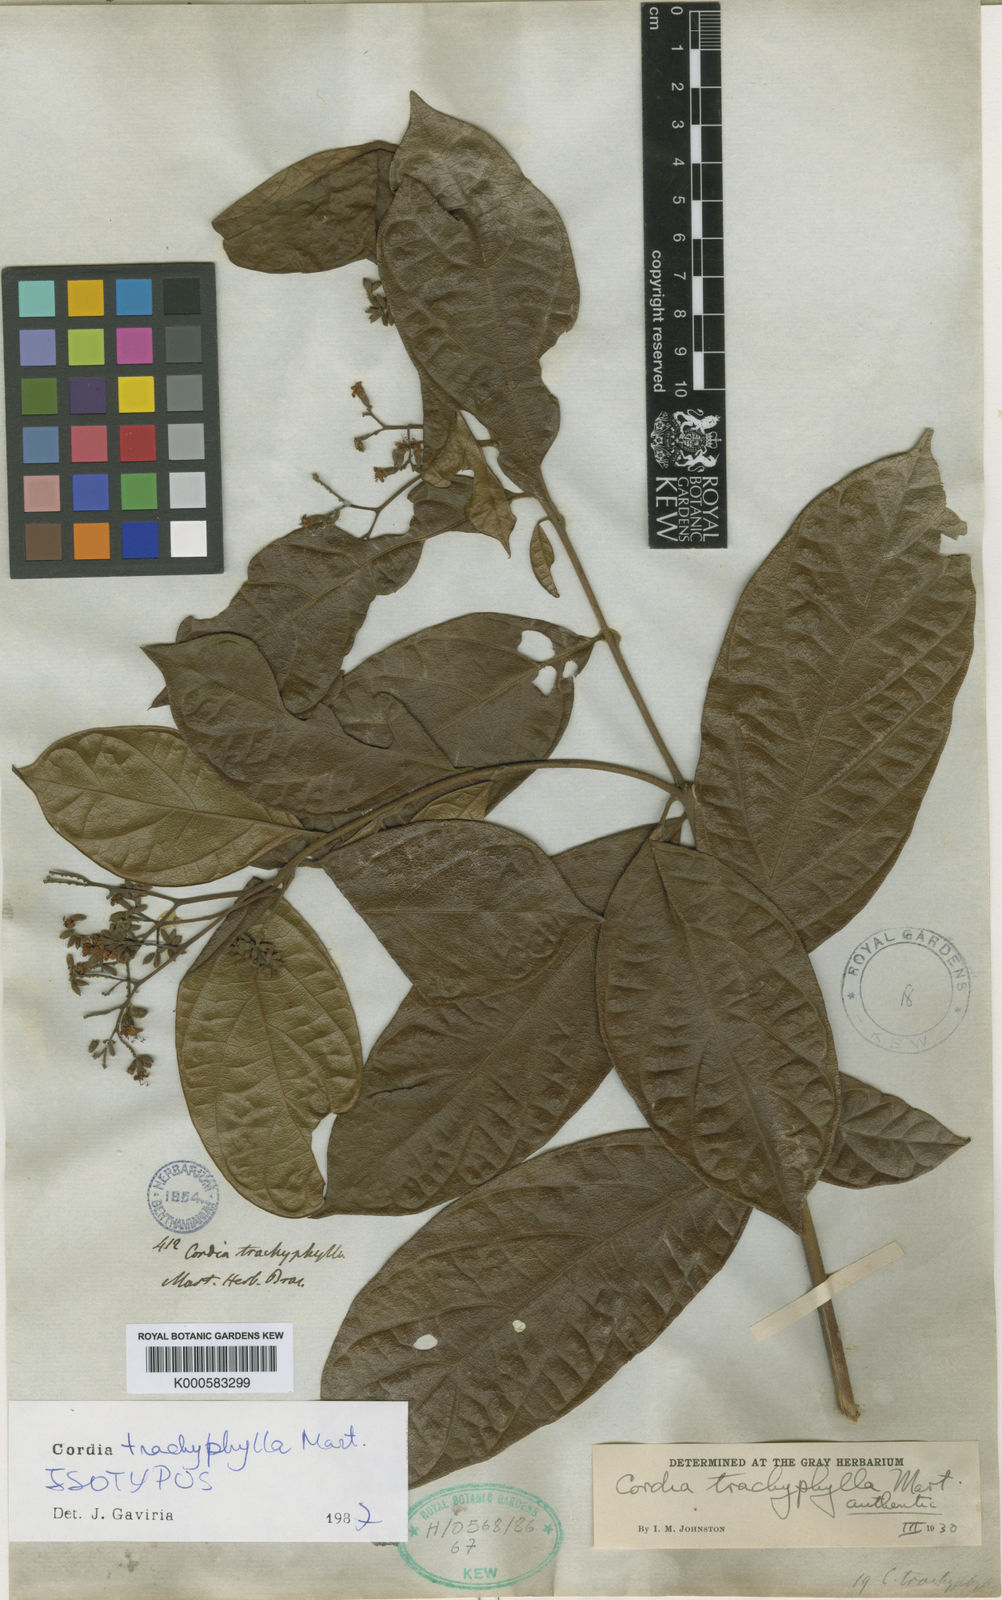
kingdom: Plantae
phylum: Tracheophyta
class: Magnoliopsida
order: Boraginales
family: Cordiaceae
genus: Cordia
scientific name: Cordia trachyphylla
